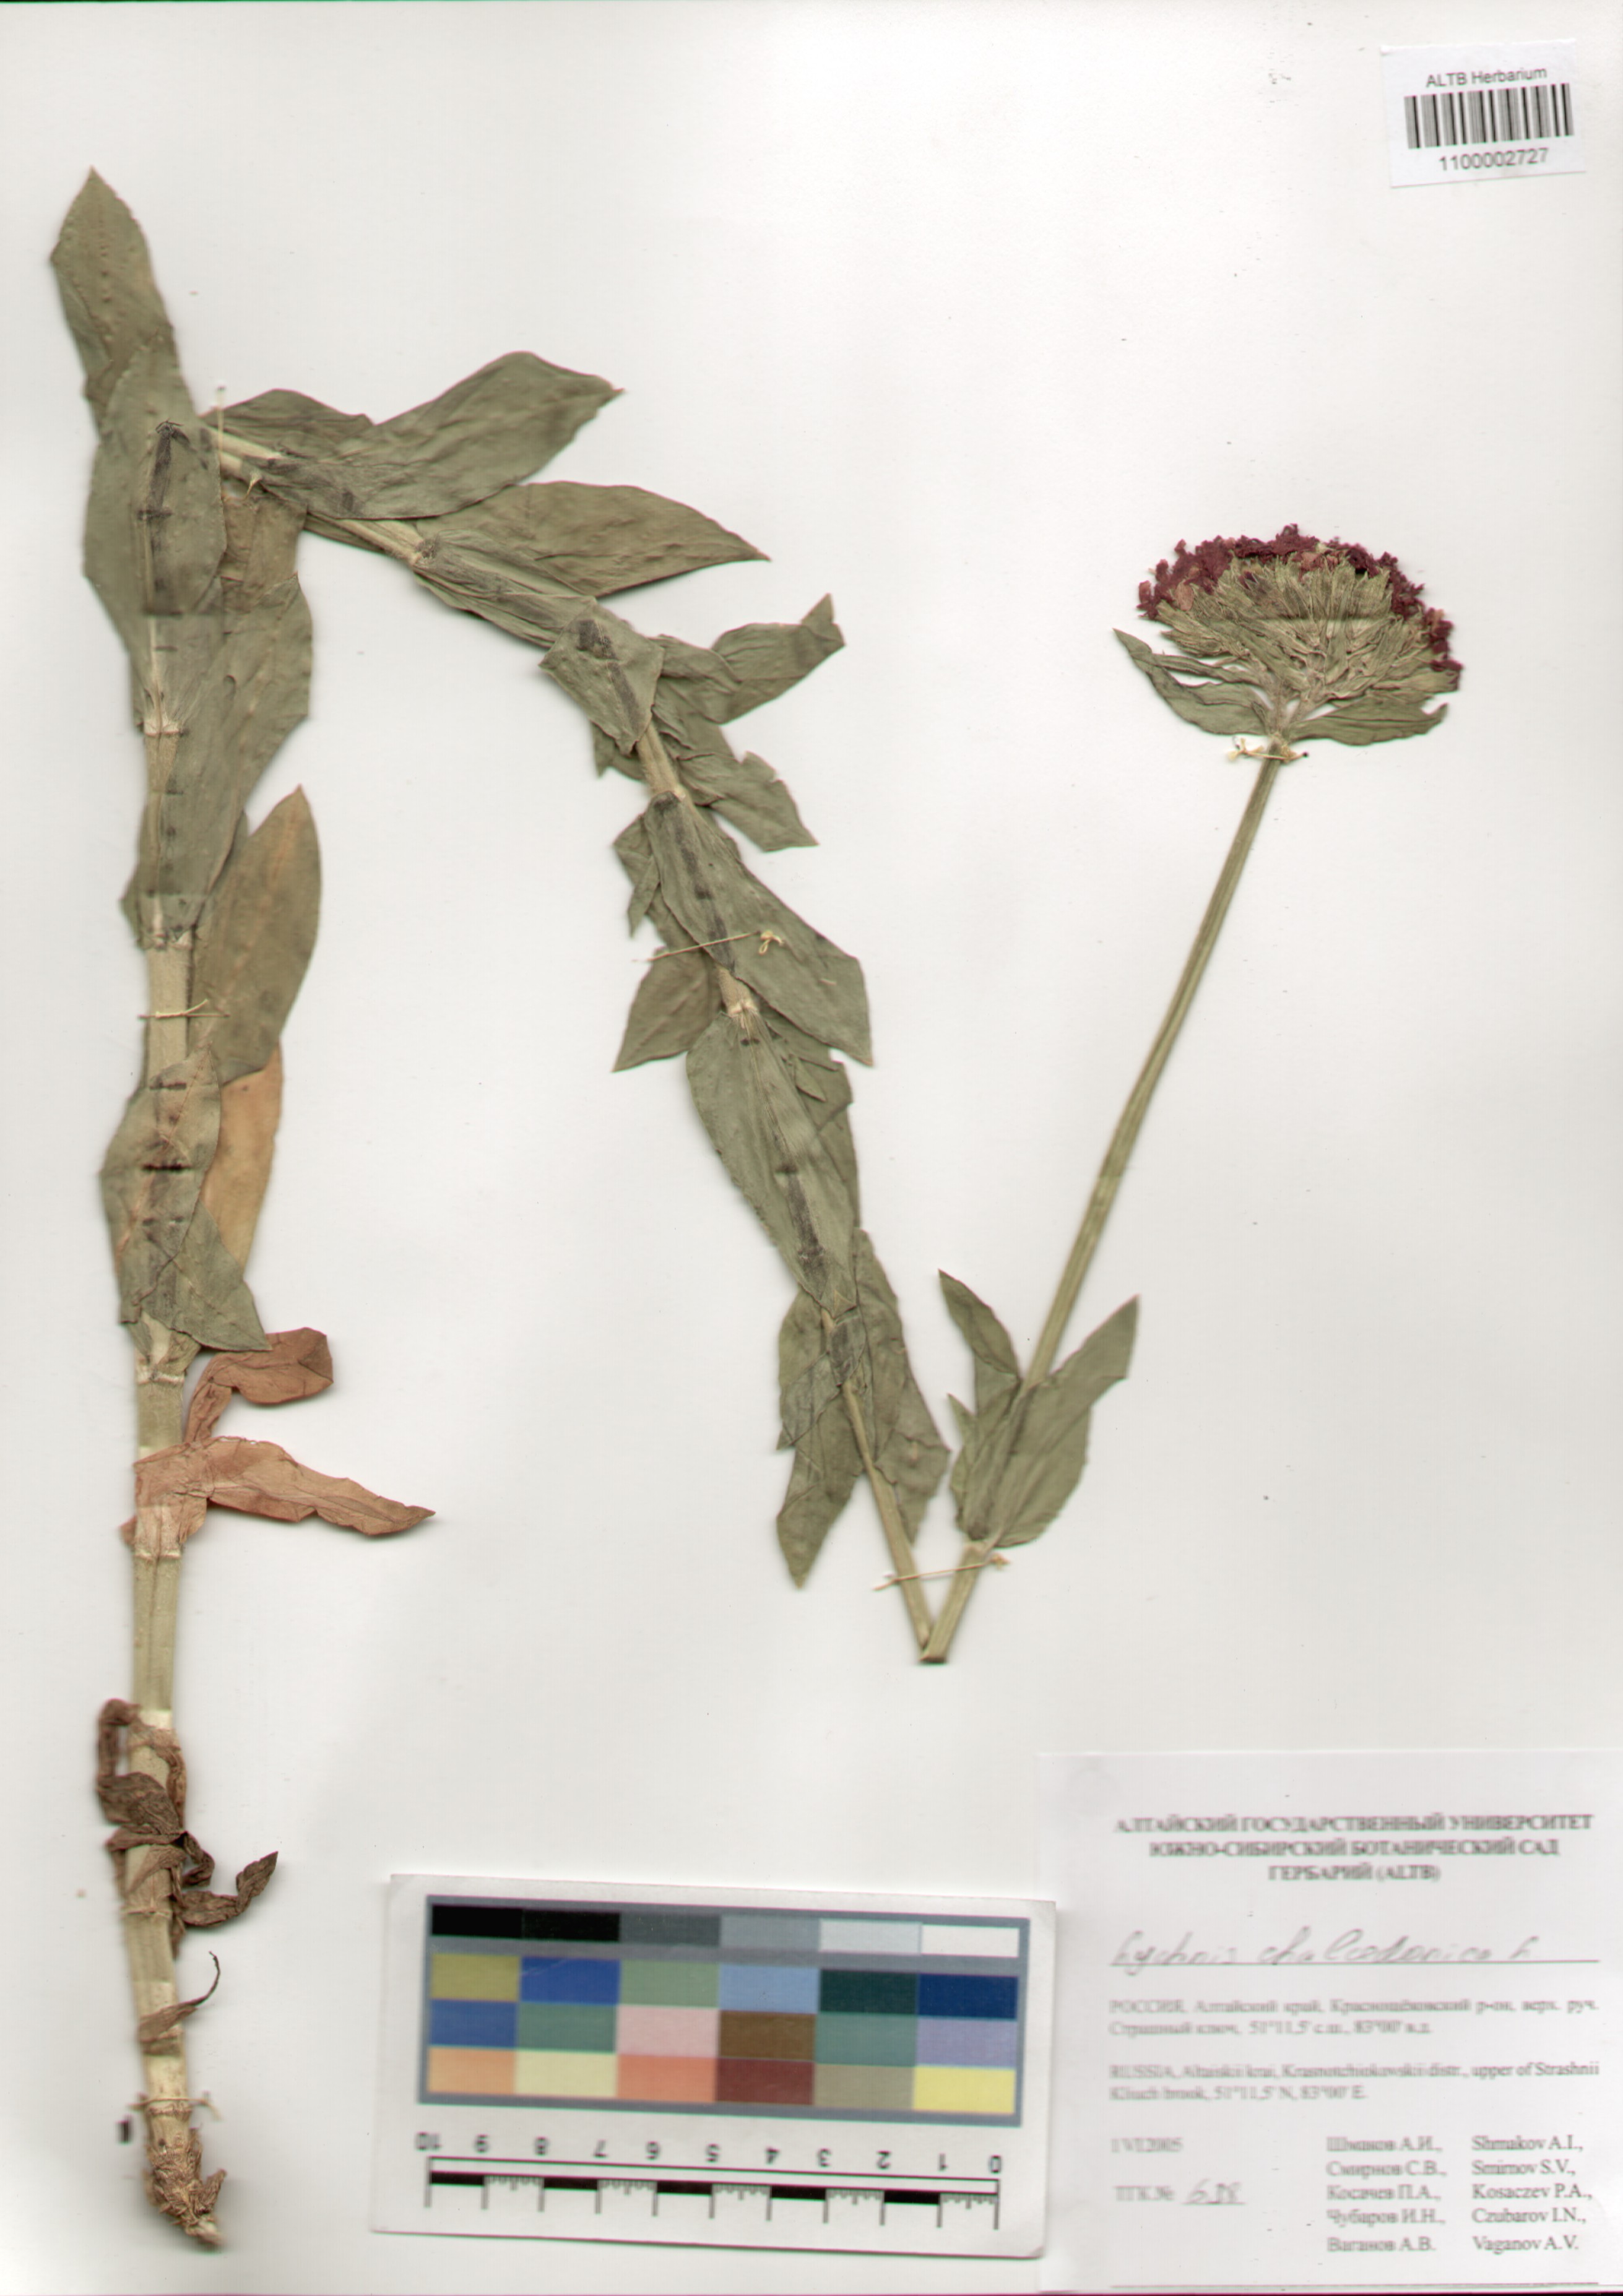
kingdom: Plantae
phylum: Tracheophyta
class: Magnoliopsida
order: Caryophyllales
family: Caryophyllaceae
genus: Silene
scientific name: Silene chalcedonica
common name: Maltese-cross
